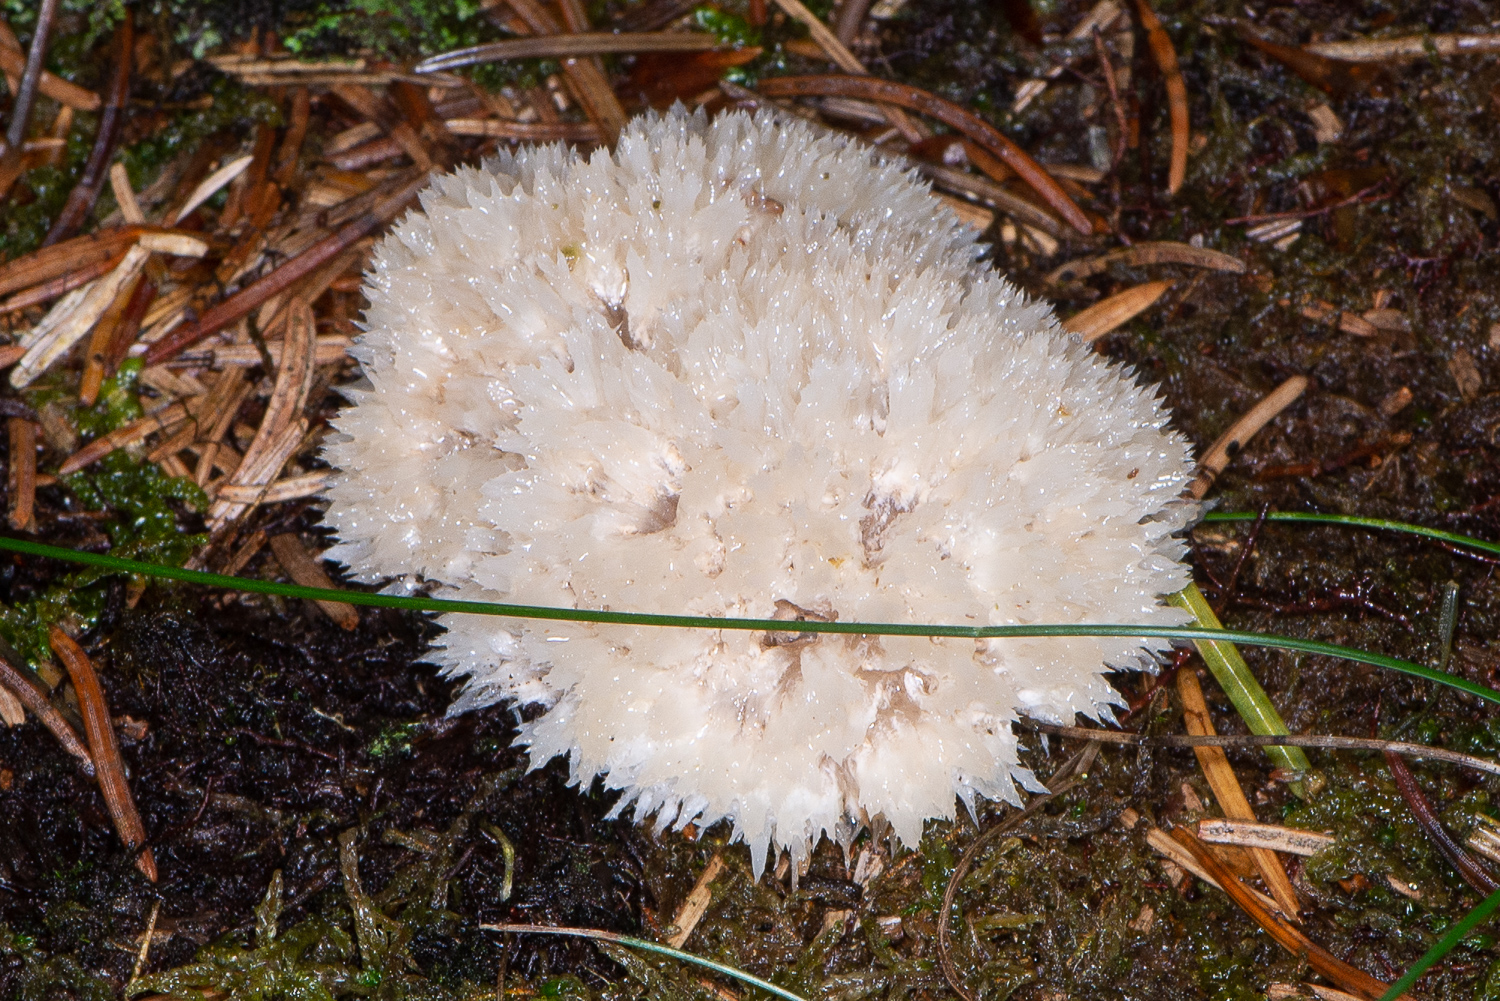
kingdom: Fungi
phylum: Basidiomycota
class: Agaricomycetes
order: Polyporales
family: Dacryobolaceae
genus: Postia
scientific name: Postia ptychogaster
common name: støvende kødporesvamp
